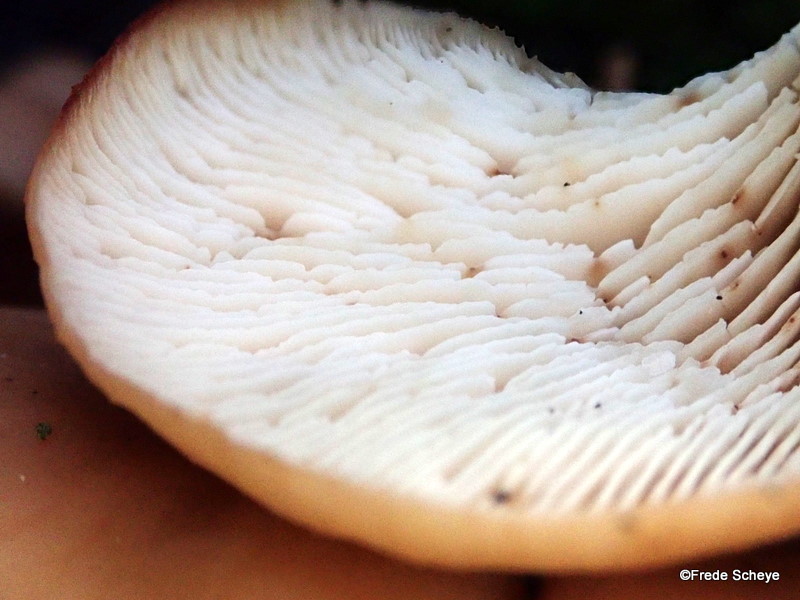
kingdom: Fungi
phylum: Basidiomycota
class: Agaricomycetes
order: Russulales
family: Auriscalpiaceae
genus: Lentinellus
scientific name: Lentinellus cochleatus
